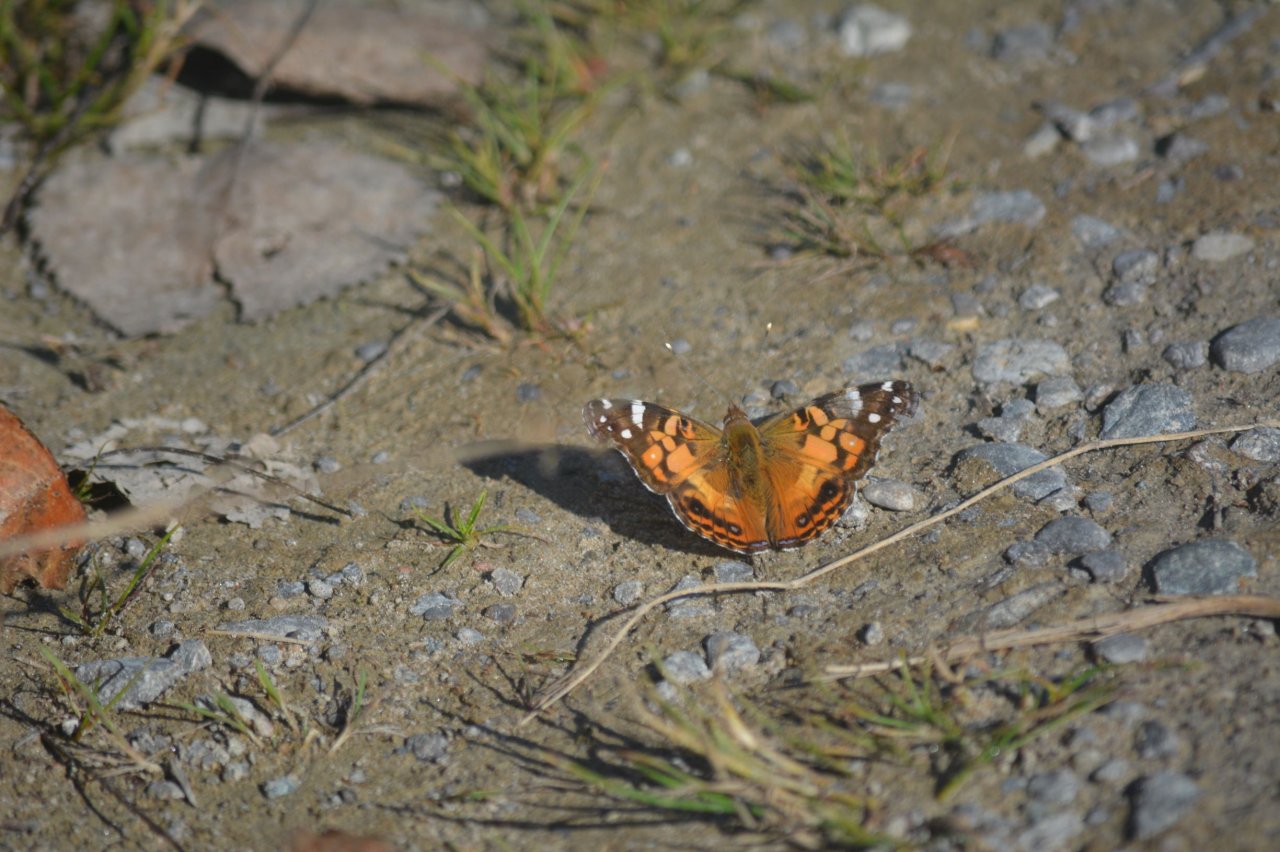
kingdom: Animalia
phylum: Arthropoda
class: Insecta
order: Lepidoptera
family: Nymphalidae
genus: Vanessa
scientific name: Vanessa virginiensis
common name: American Lady
